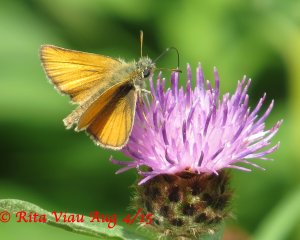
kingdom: Animalia
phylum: Arthropoda
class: Insecta
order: Lepidoptera
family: Hesperiidae
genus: Thymelicus
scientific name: Thymelicus lineola
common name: European Skipper
